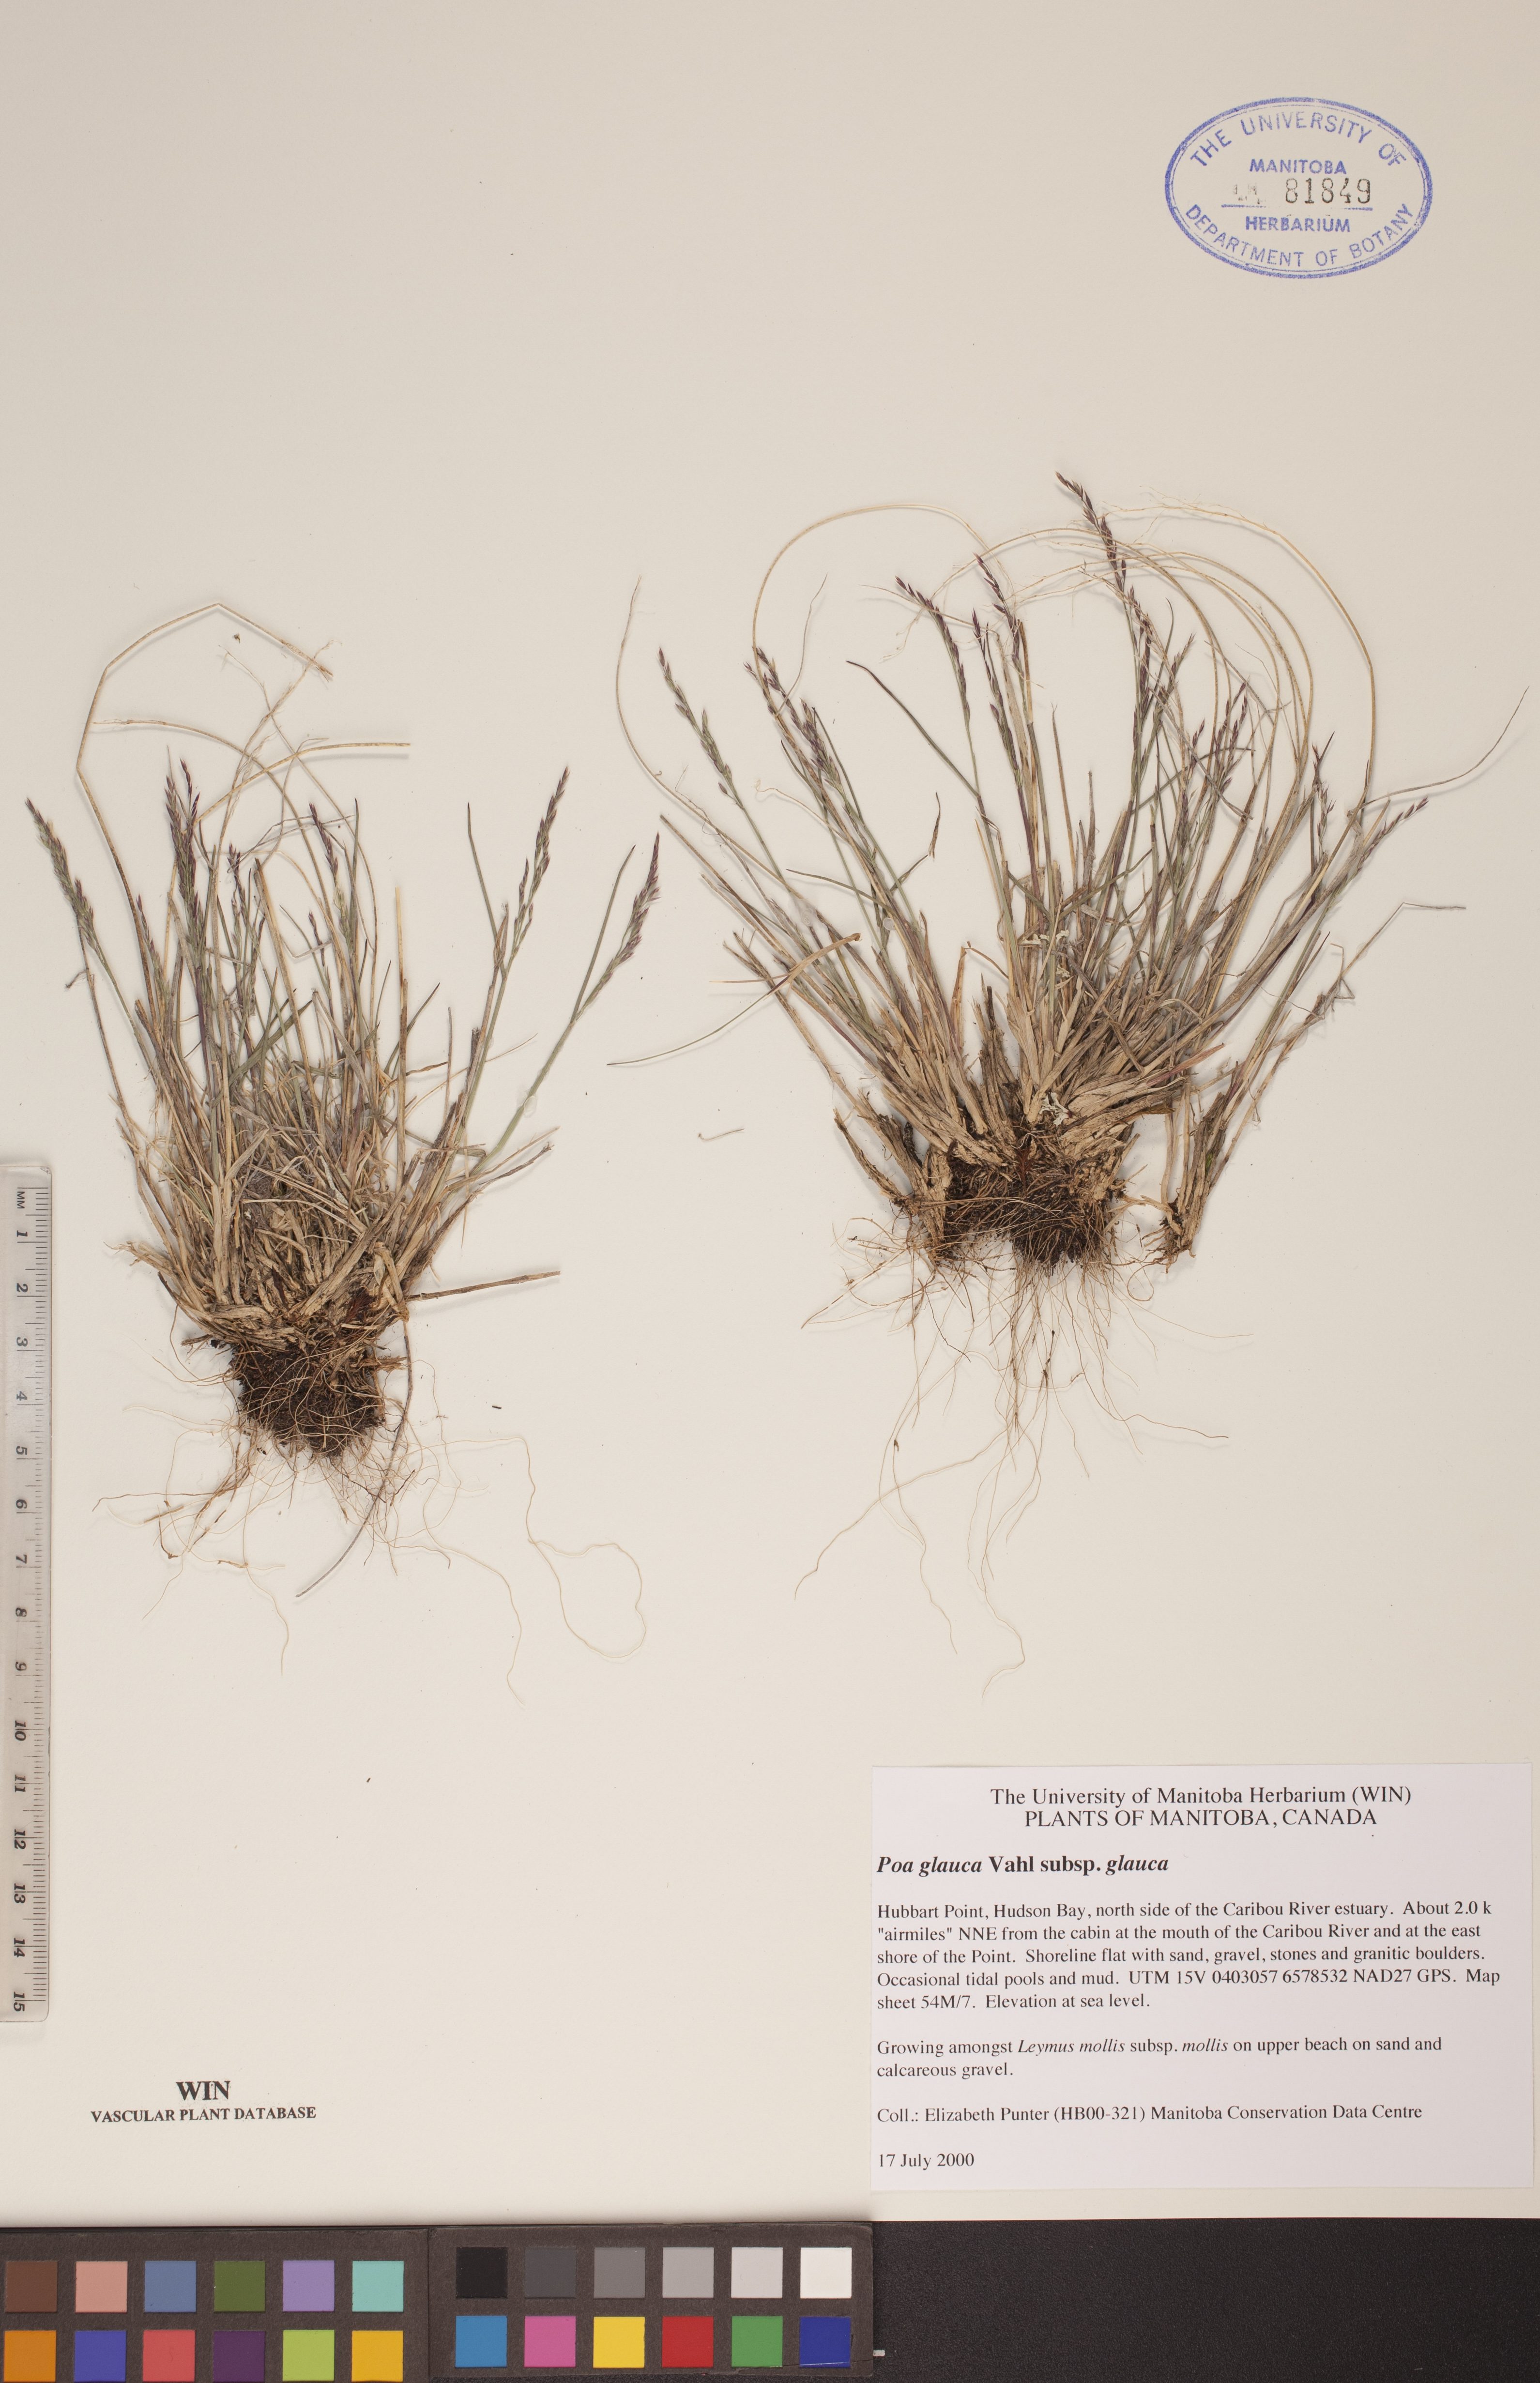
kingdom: Plantae
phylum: Tracheophyta
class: Liliopsida
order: Poales
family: Poaceae
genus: Poa
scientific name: Poa glauca
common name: Glaucous bluegrass
